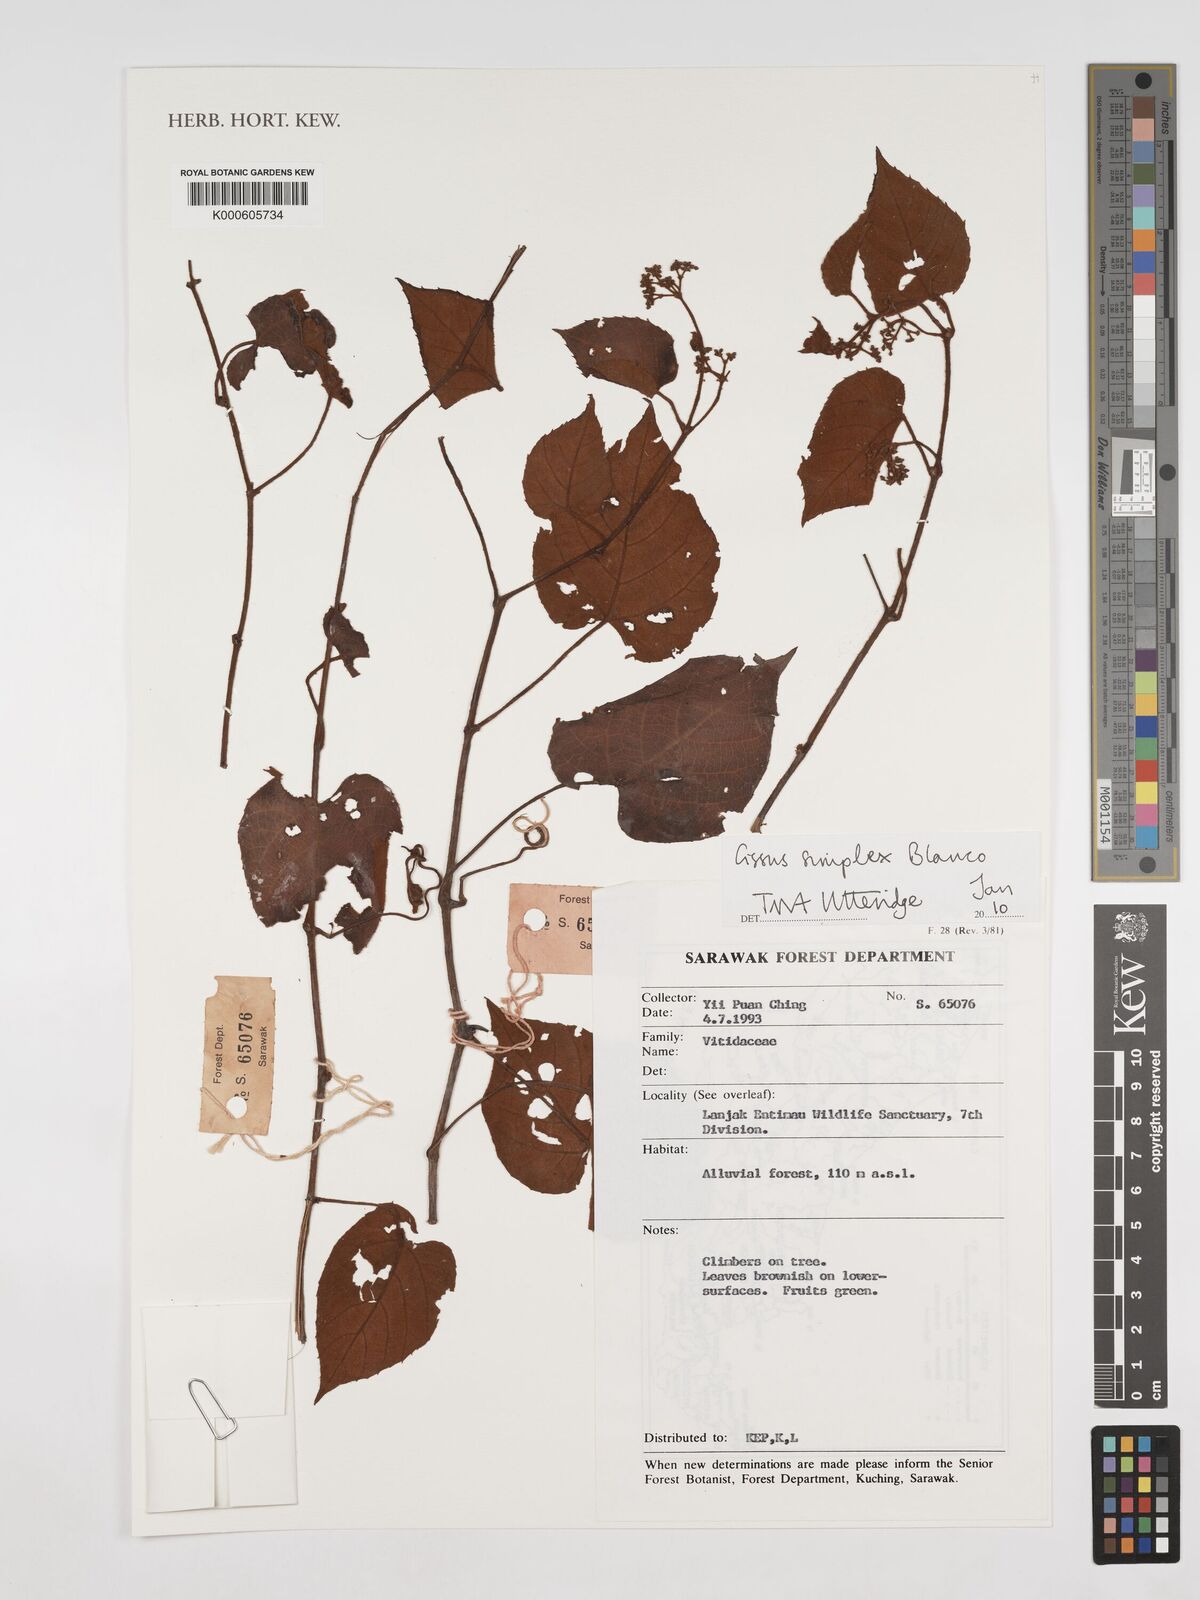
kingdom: Plantae
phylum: Tracheophyta
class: Magnoliopsida
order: Vitales
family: Vitaceae
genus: Cissus
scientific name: Cissus aristata
